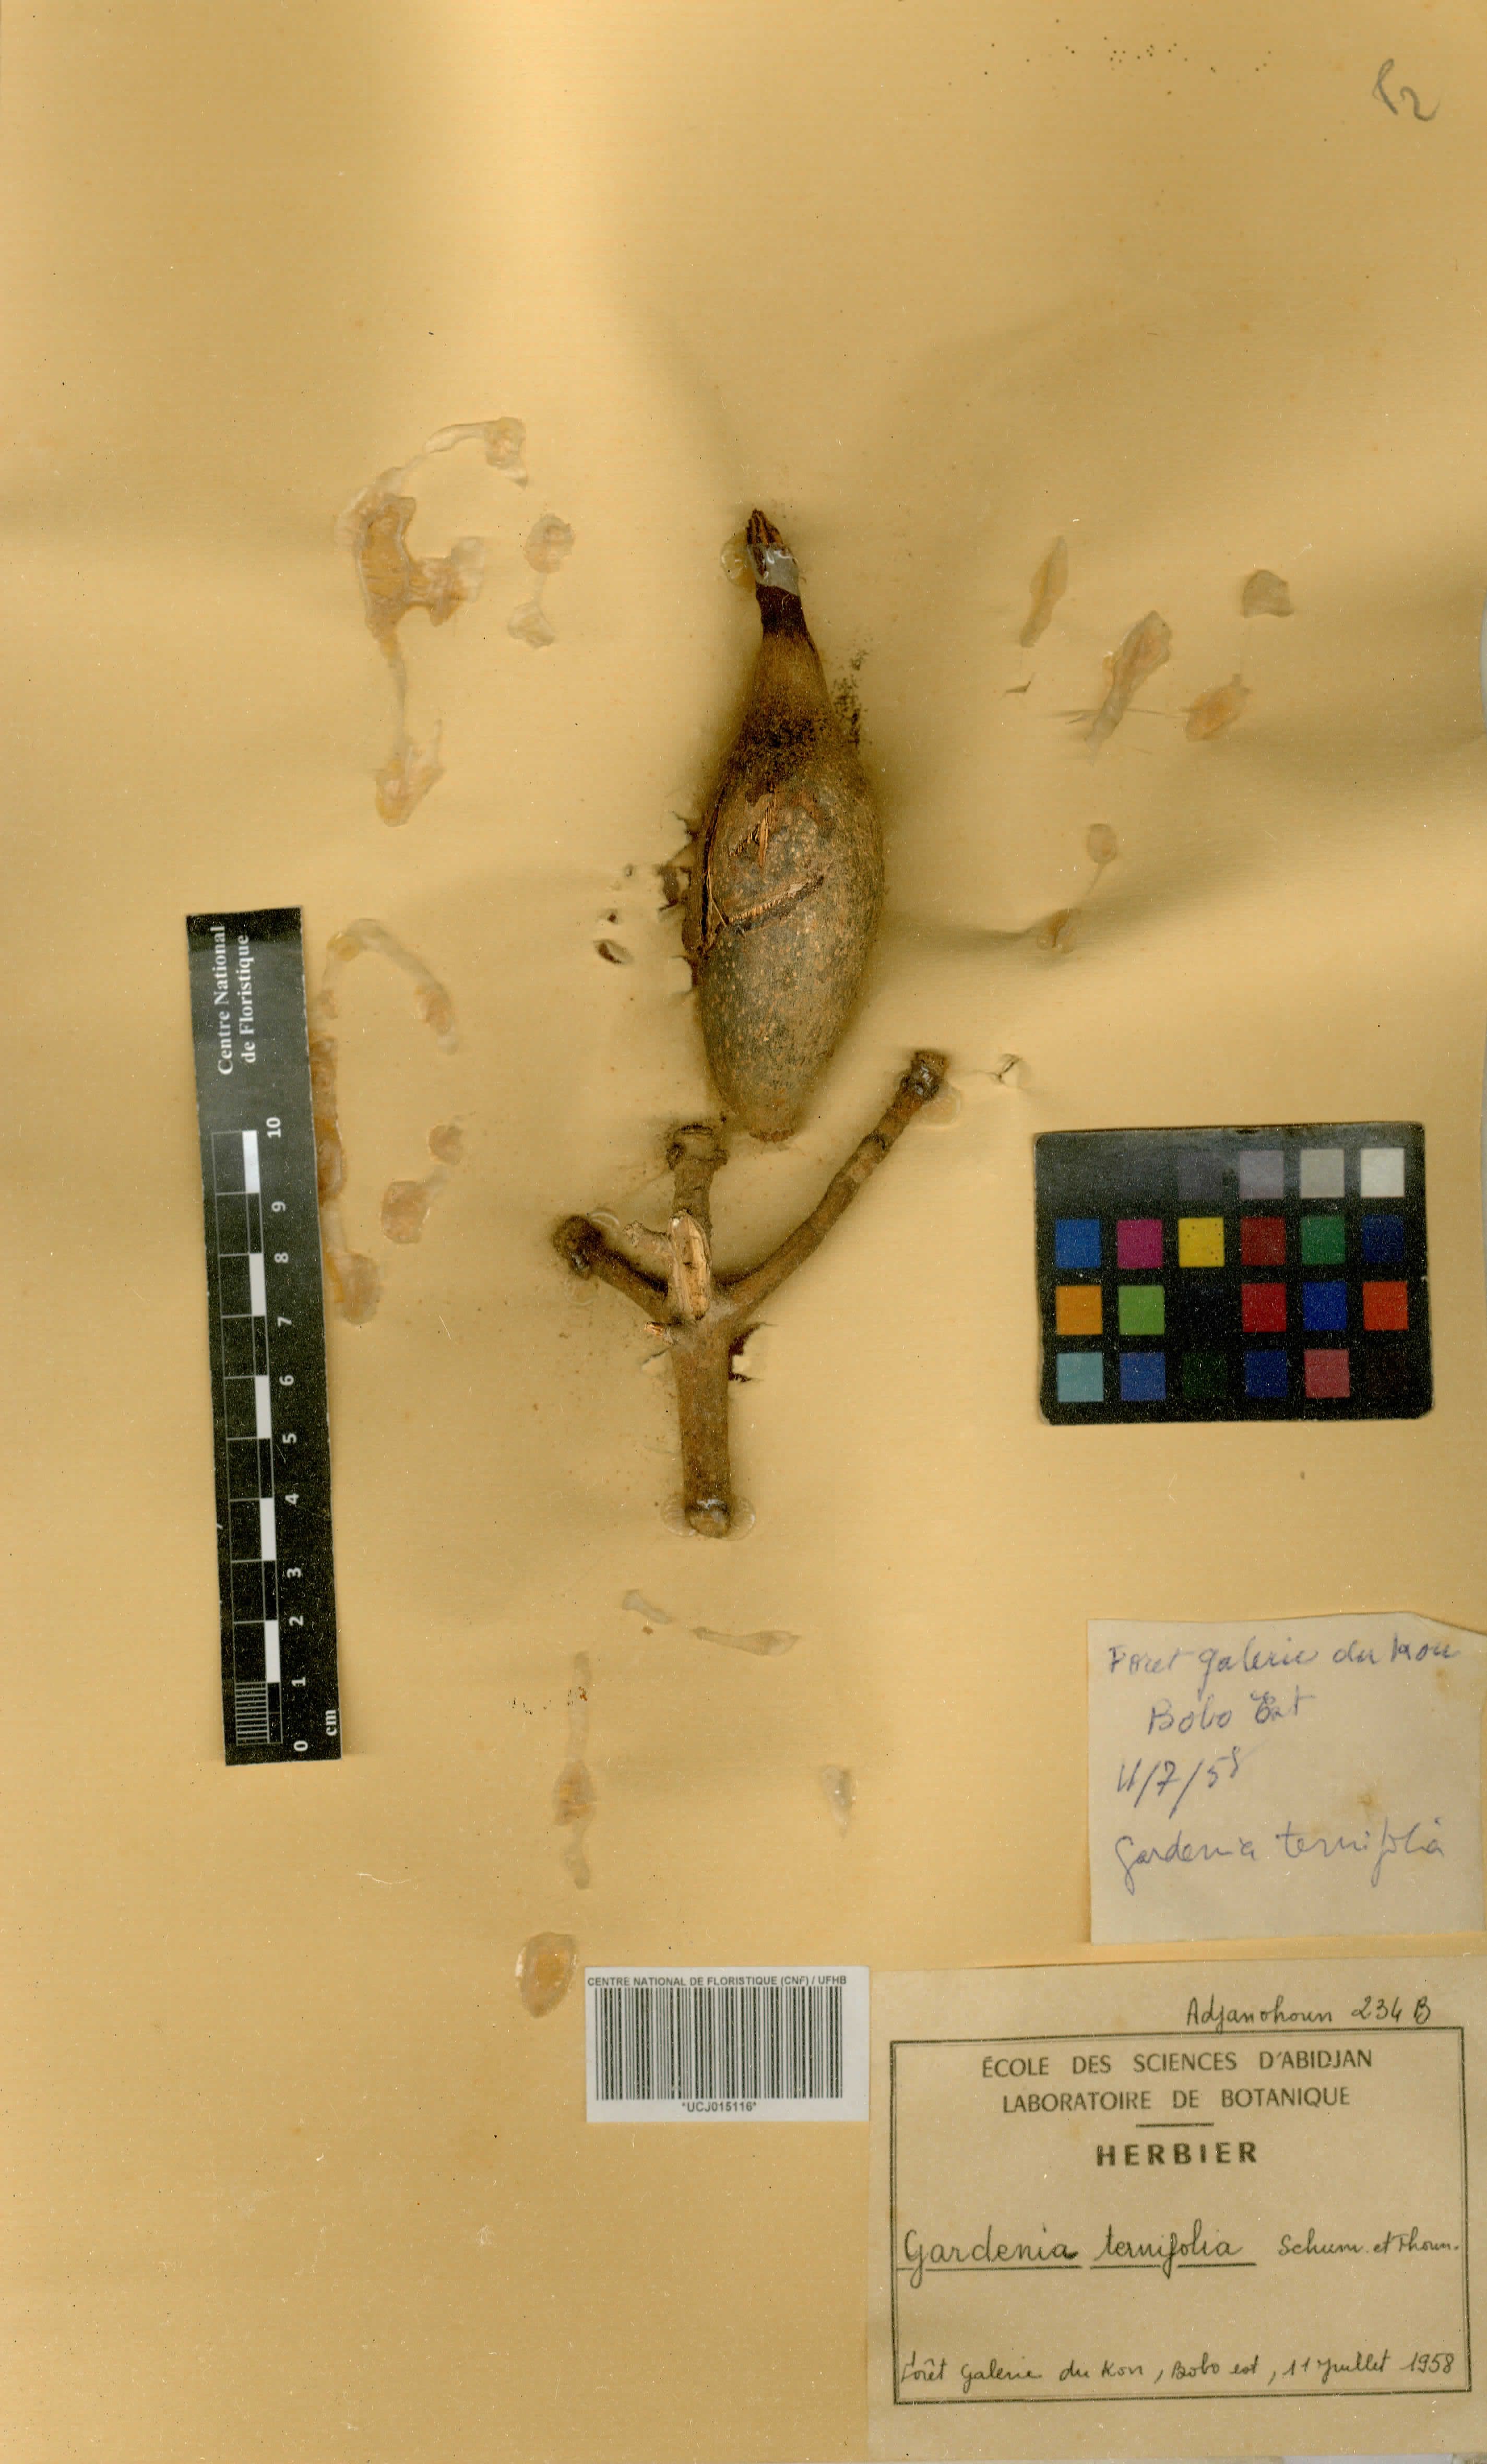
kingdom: Plantae
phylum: Tracheophyta
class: Magnoliopsida
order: Gentianales
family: Rubiaceae
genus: Gardenia
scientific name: Gardenia ternifolia
